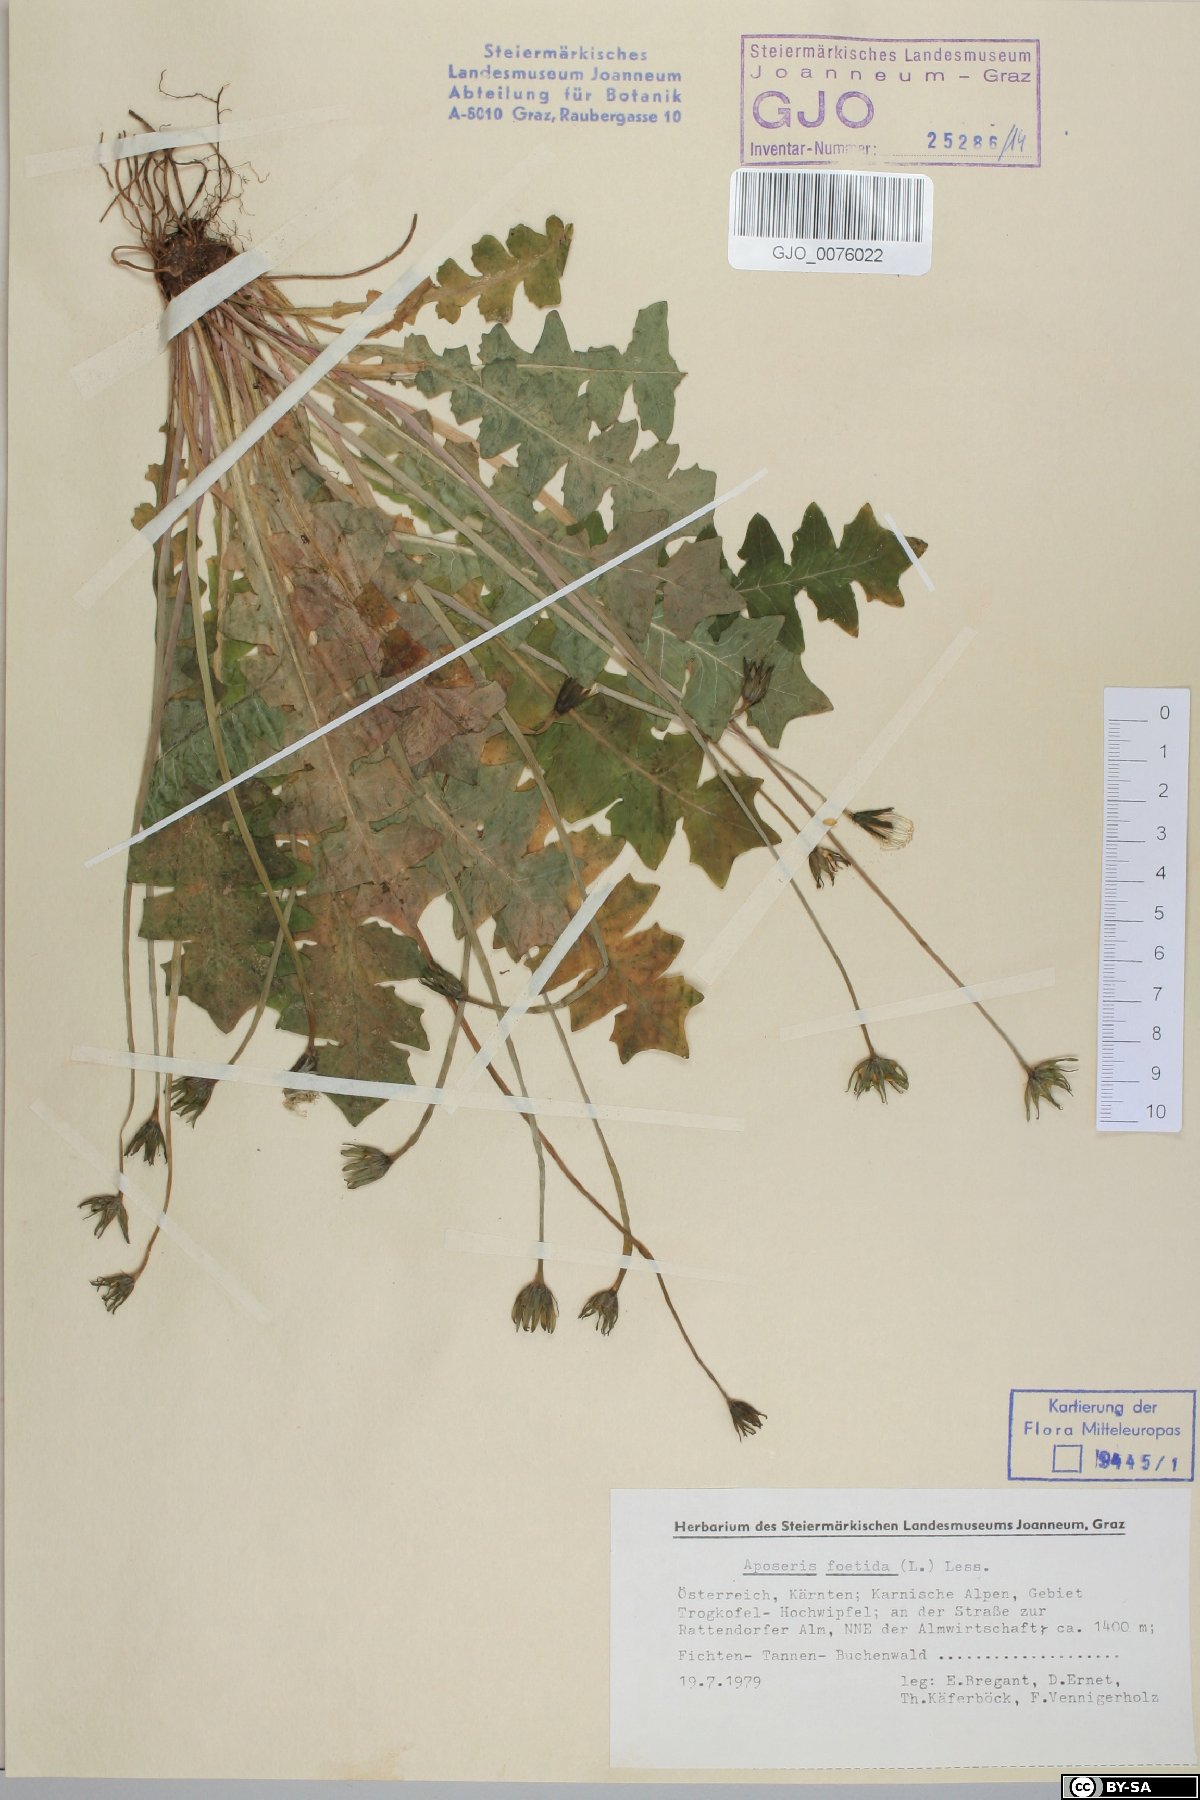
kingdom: Plantae
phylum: Tracheophyta
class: Magnoliopsida
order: Asterales
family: Asteraceae
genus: Aposeris
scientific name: Aposeris foetida
